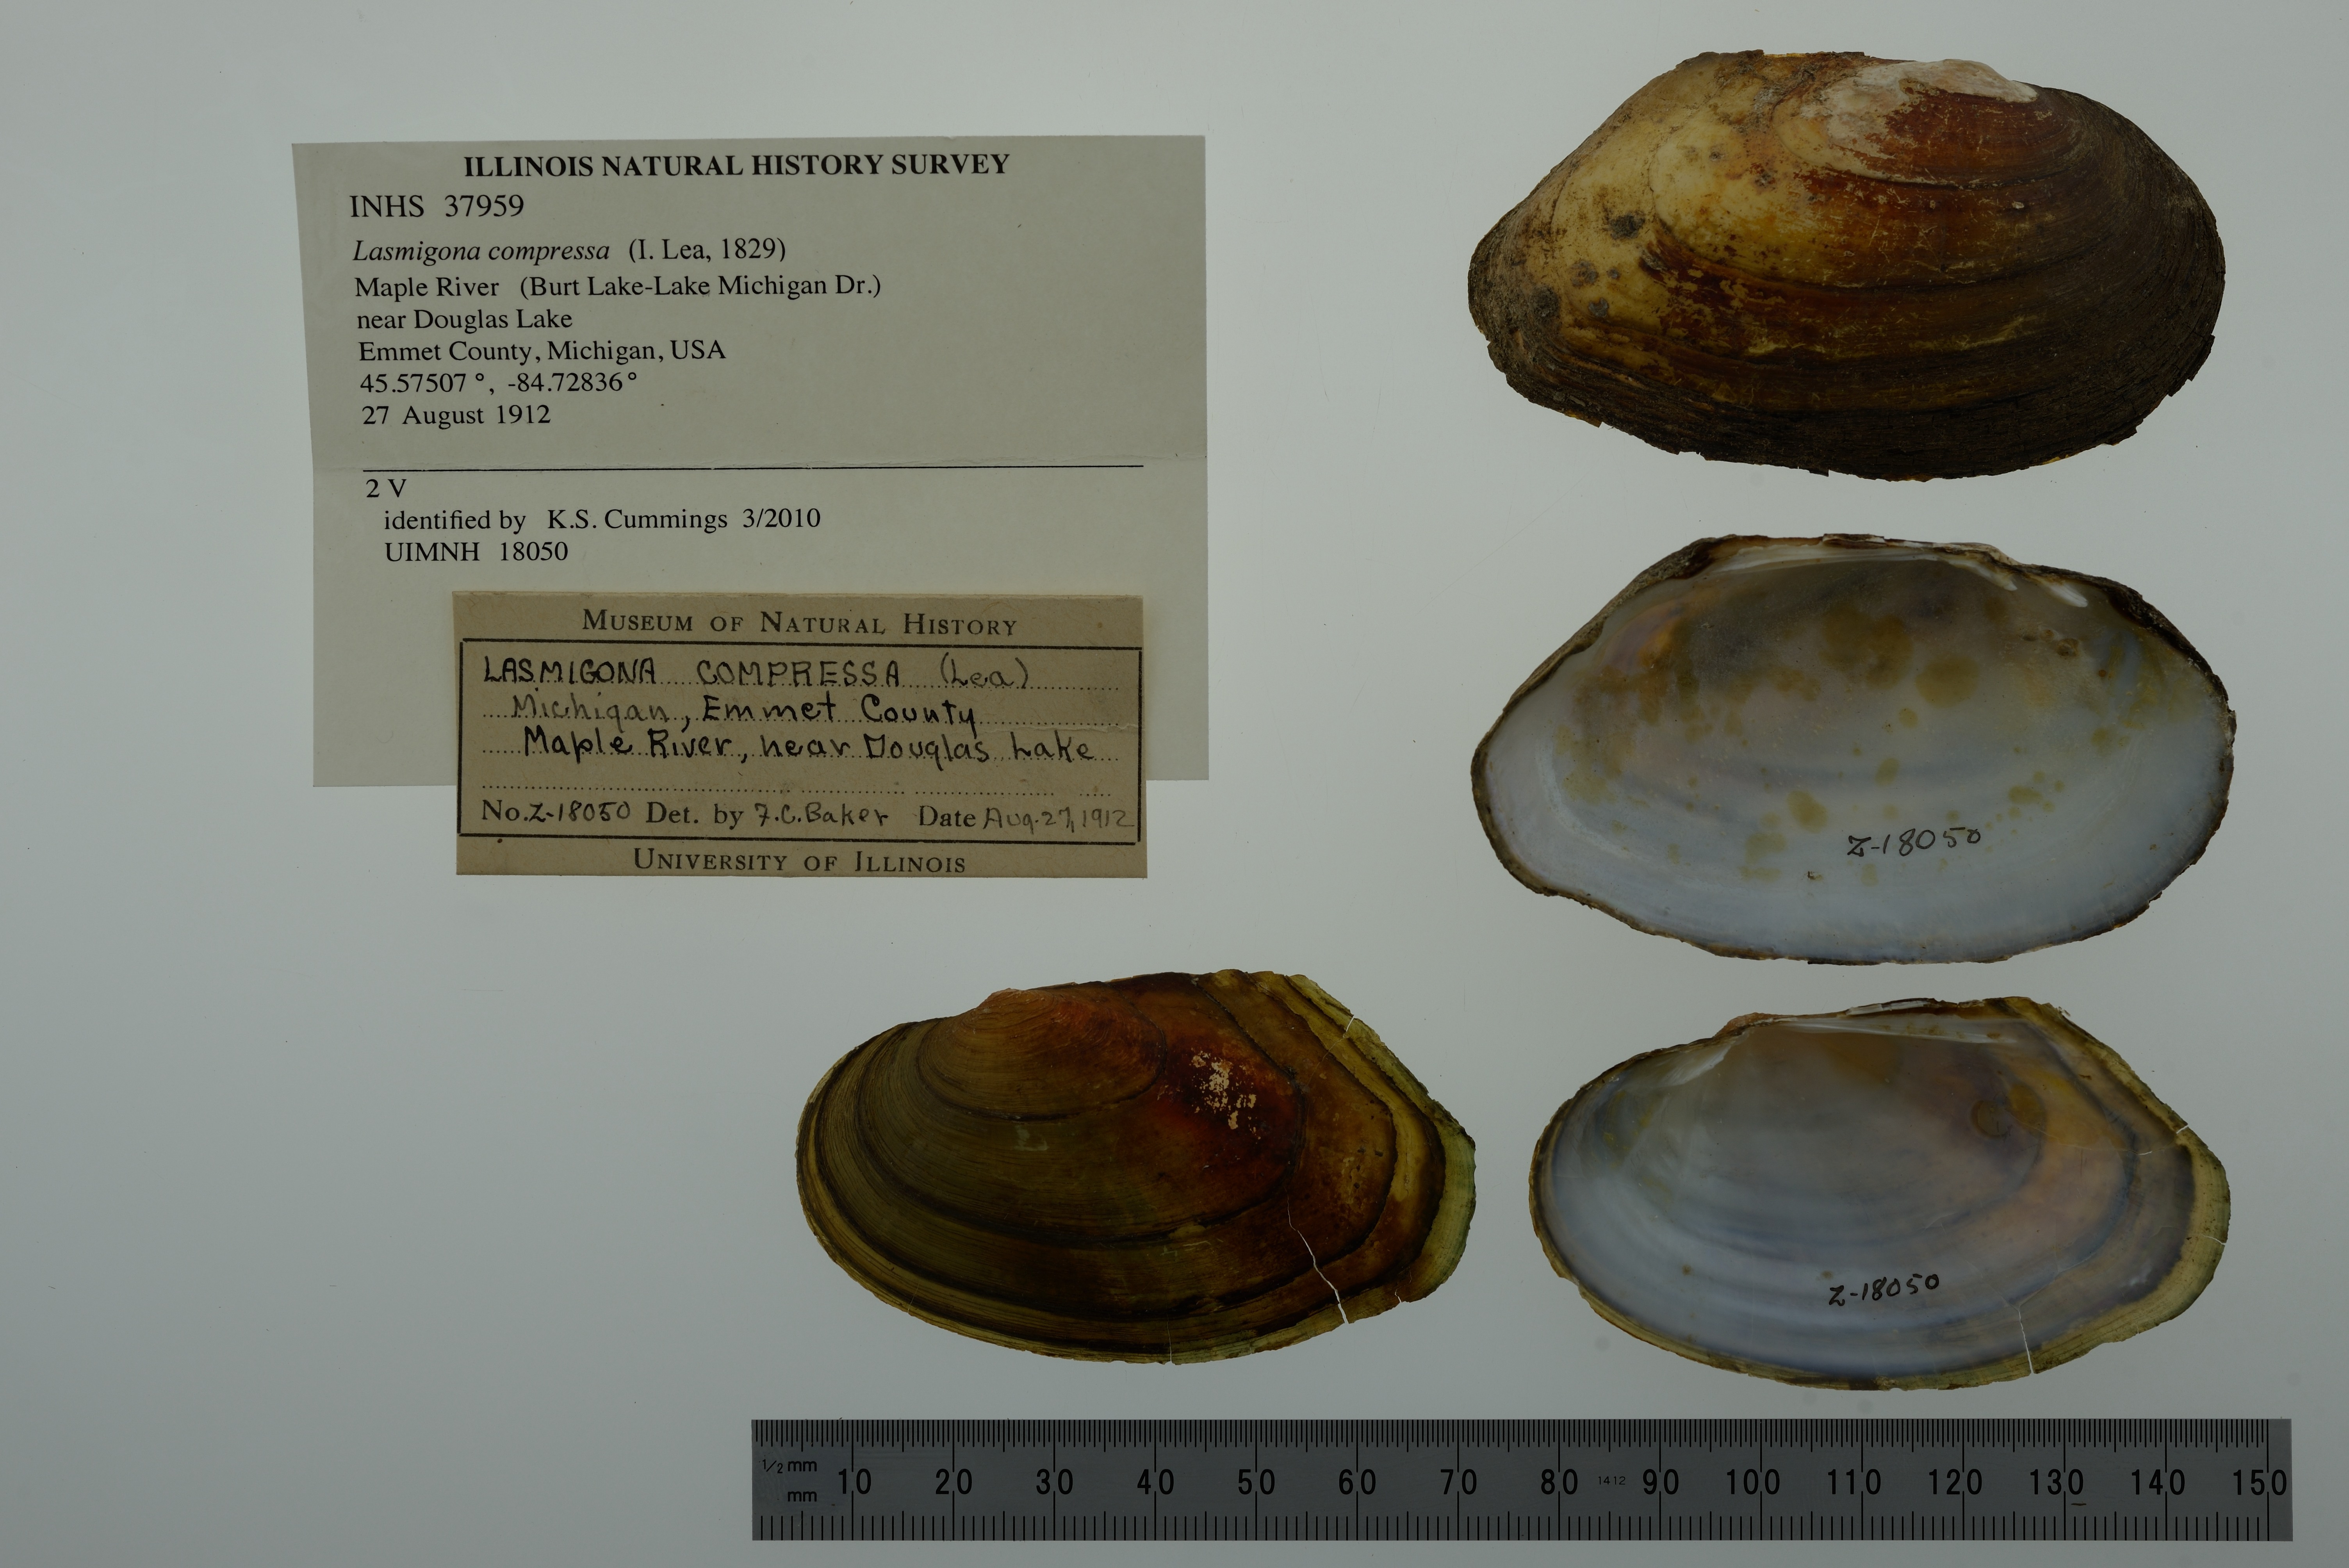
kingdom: Animalia
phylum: Mollusca
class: Bivalvia
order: Unionida
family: Unionidae
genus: Lasmigona
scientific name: Lasmigona compressa
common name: Creek heelsplitter
